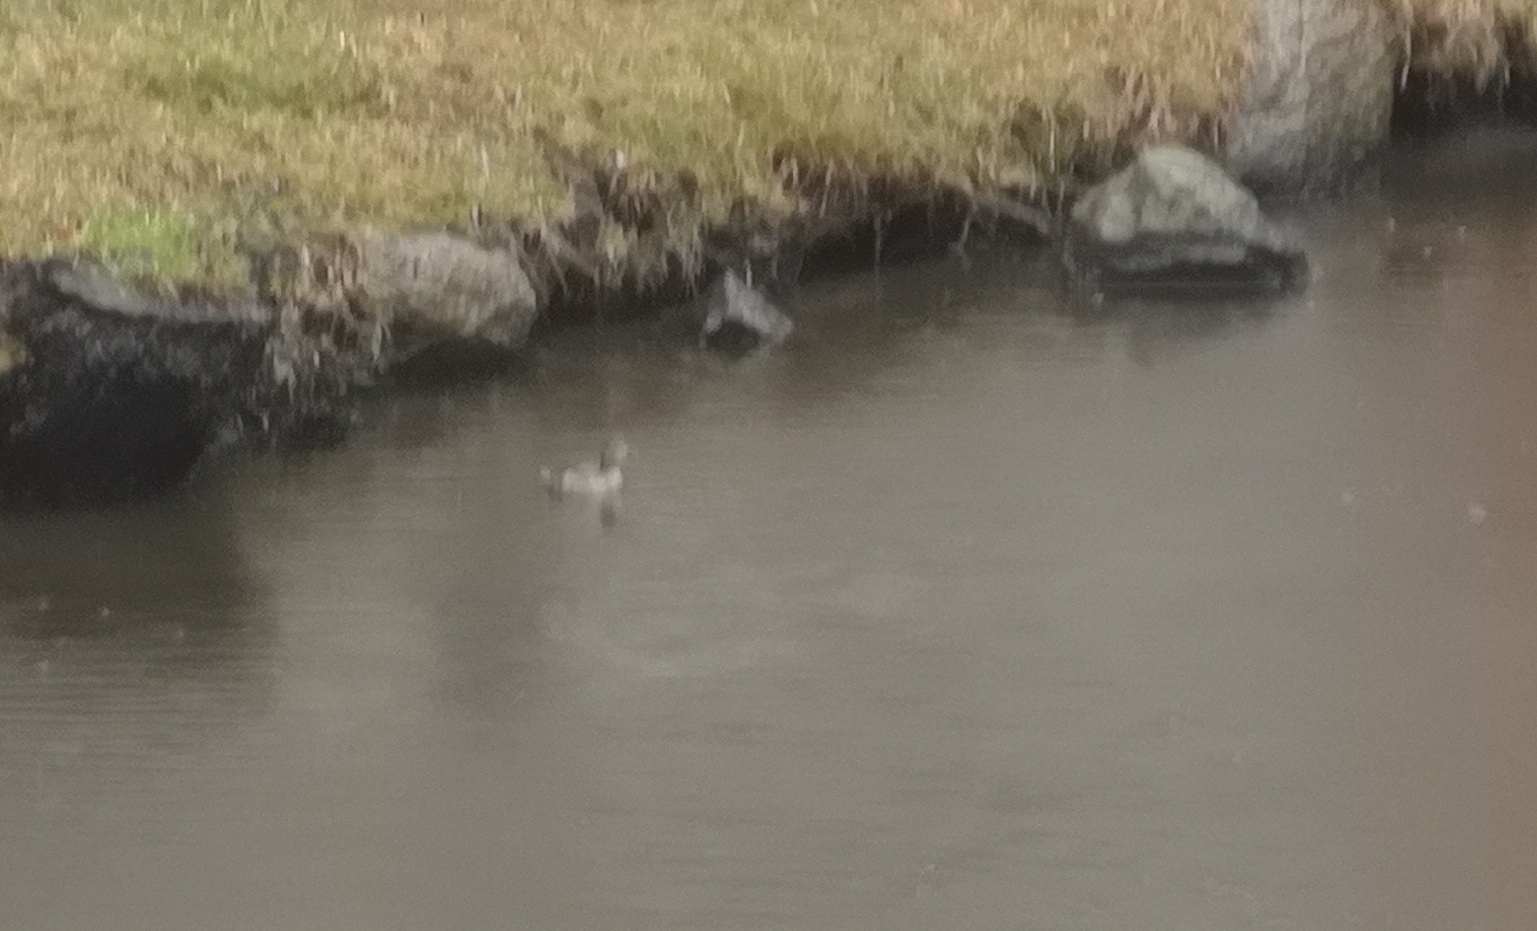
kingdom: Animalia
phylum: Chordata
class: Aves
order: Podicipediformes
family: Podicipedidae
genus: Tachybaptus
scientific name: Tachybaptus ruficollis
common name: Lille lappedykker
